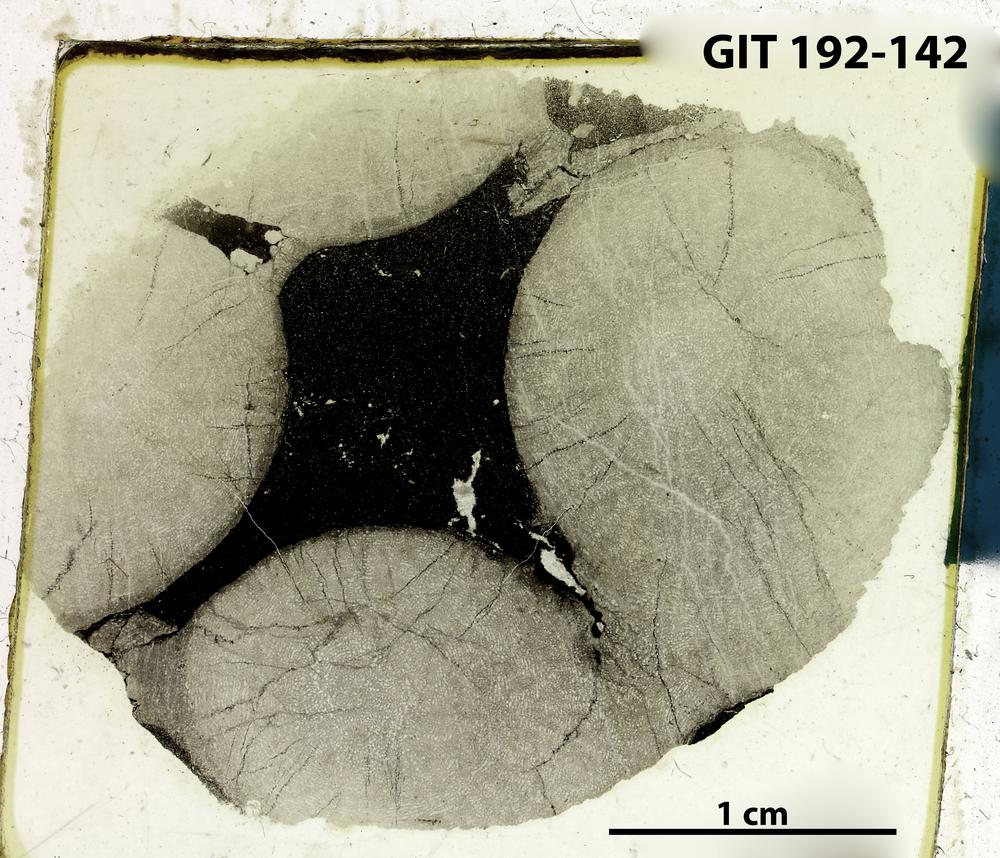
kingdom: Animalia
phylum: Porifera
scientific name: Porifera
